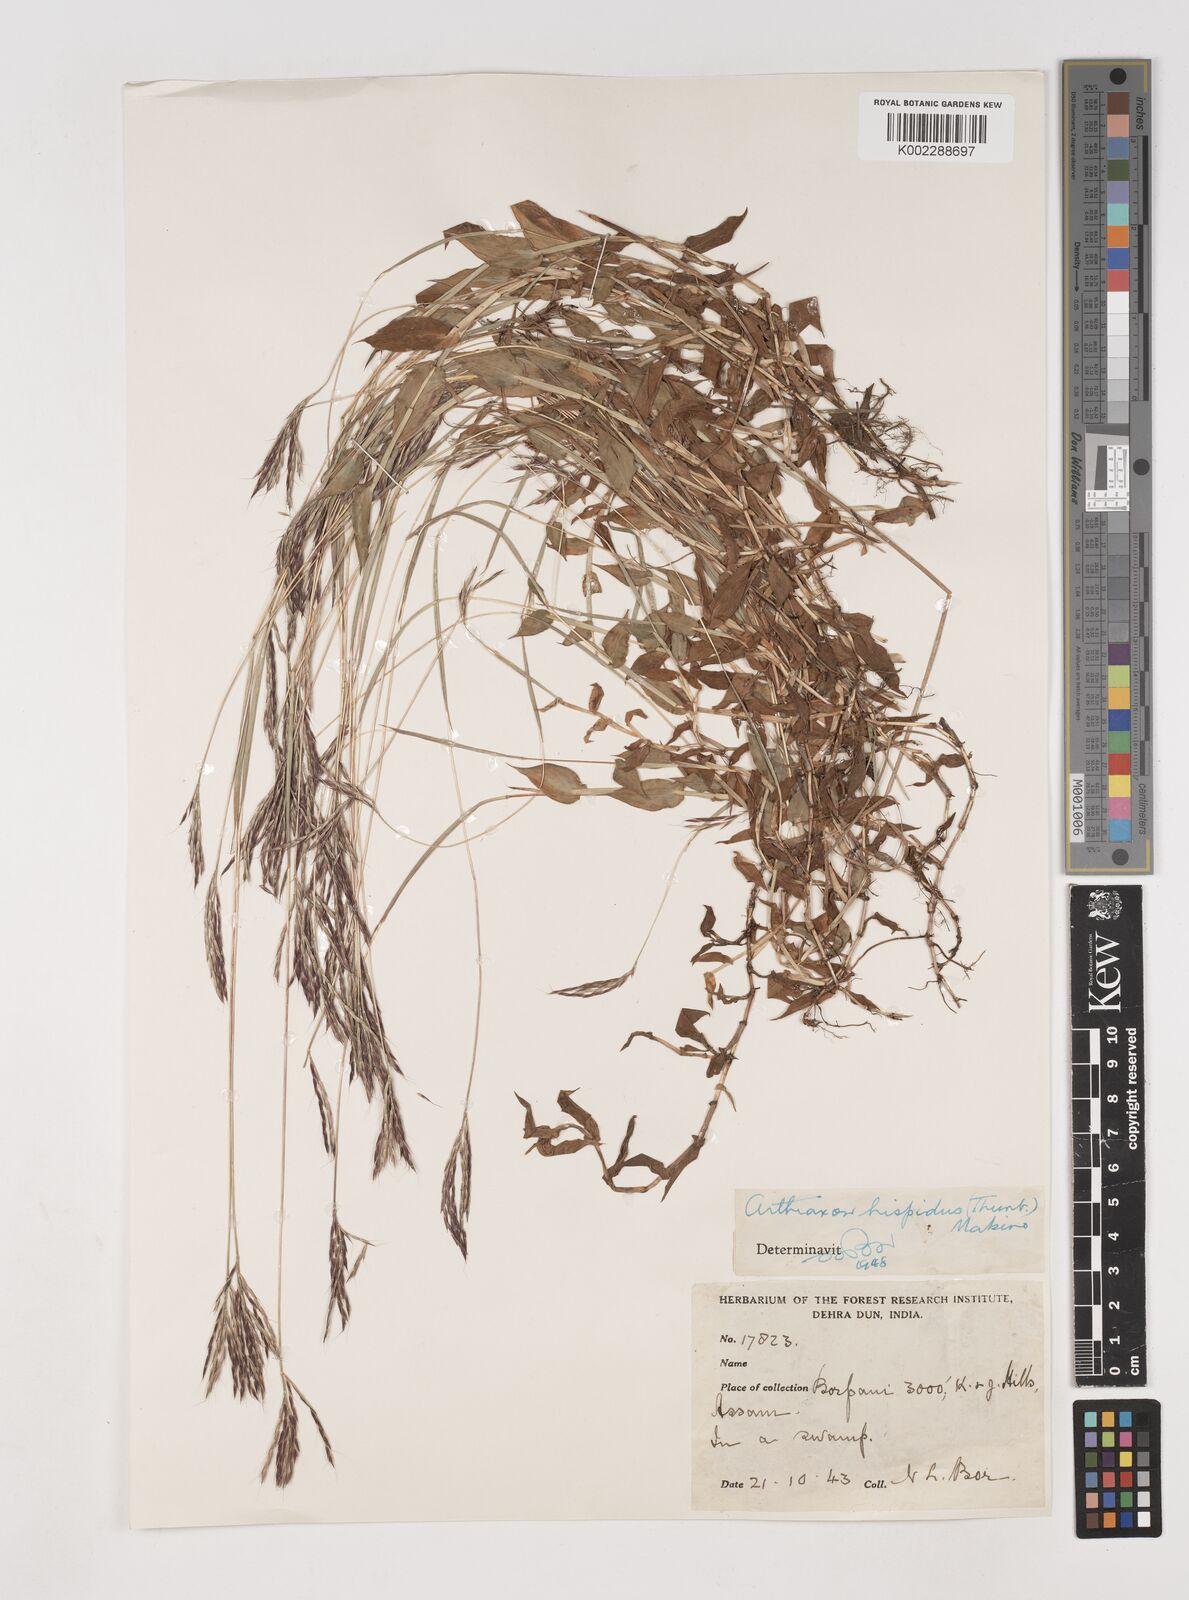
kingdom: Plantae
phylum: Tracheophyta
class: Liliopsida
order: Poales
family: Poaceae
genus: Arthraxon
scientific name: Arthraxon hispidus
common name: Small carpgrass
